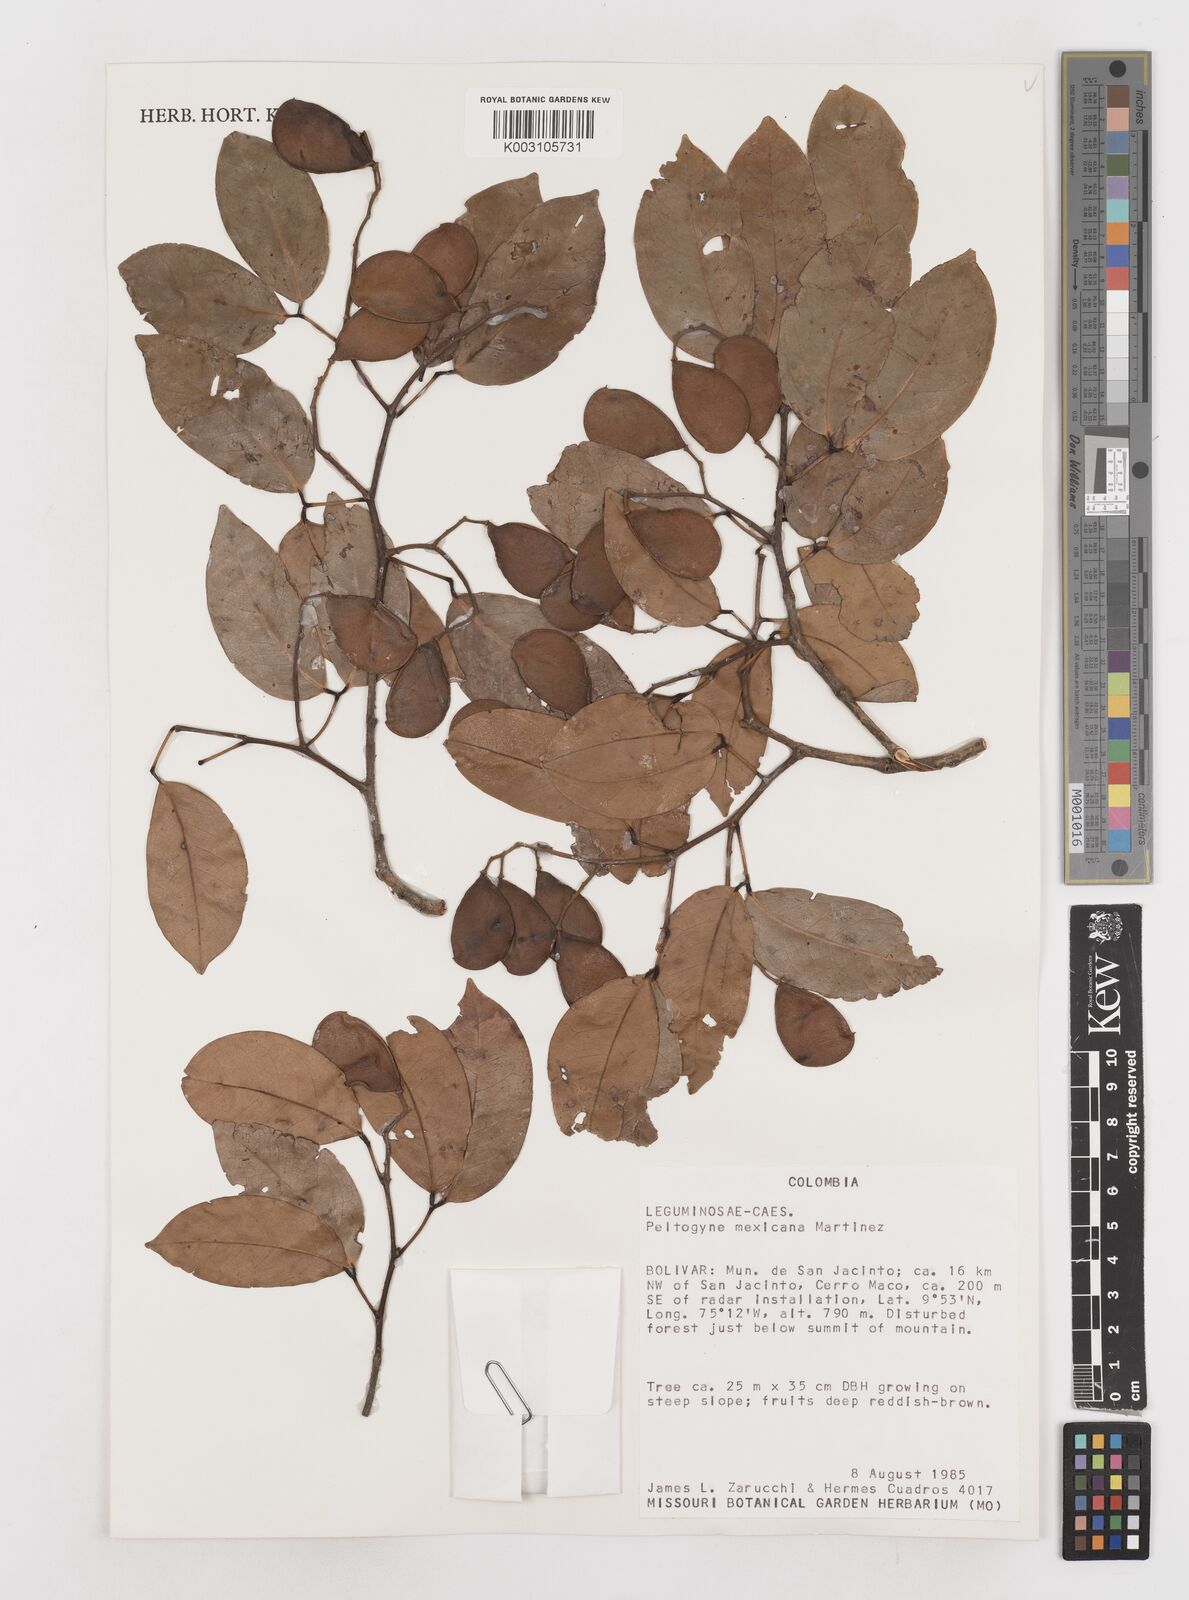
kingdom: Plantae
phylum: Tracheophyta
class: Magnoliopsida
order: Fabales
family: Fabaceae
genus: Peltogyne
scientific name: Peltogyne mexicana
